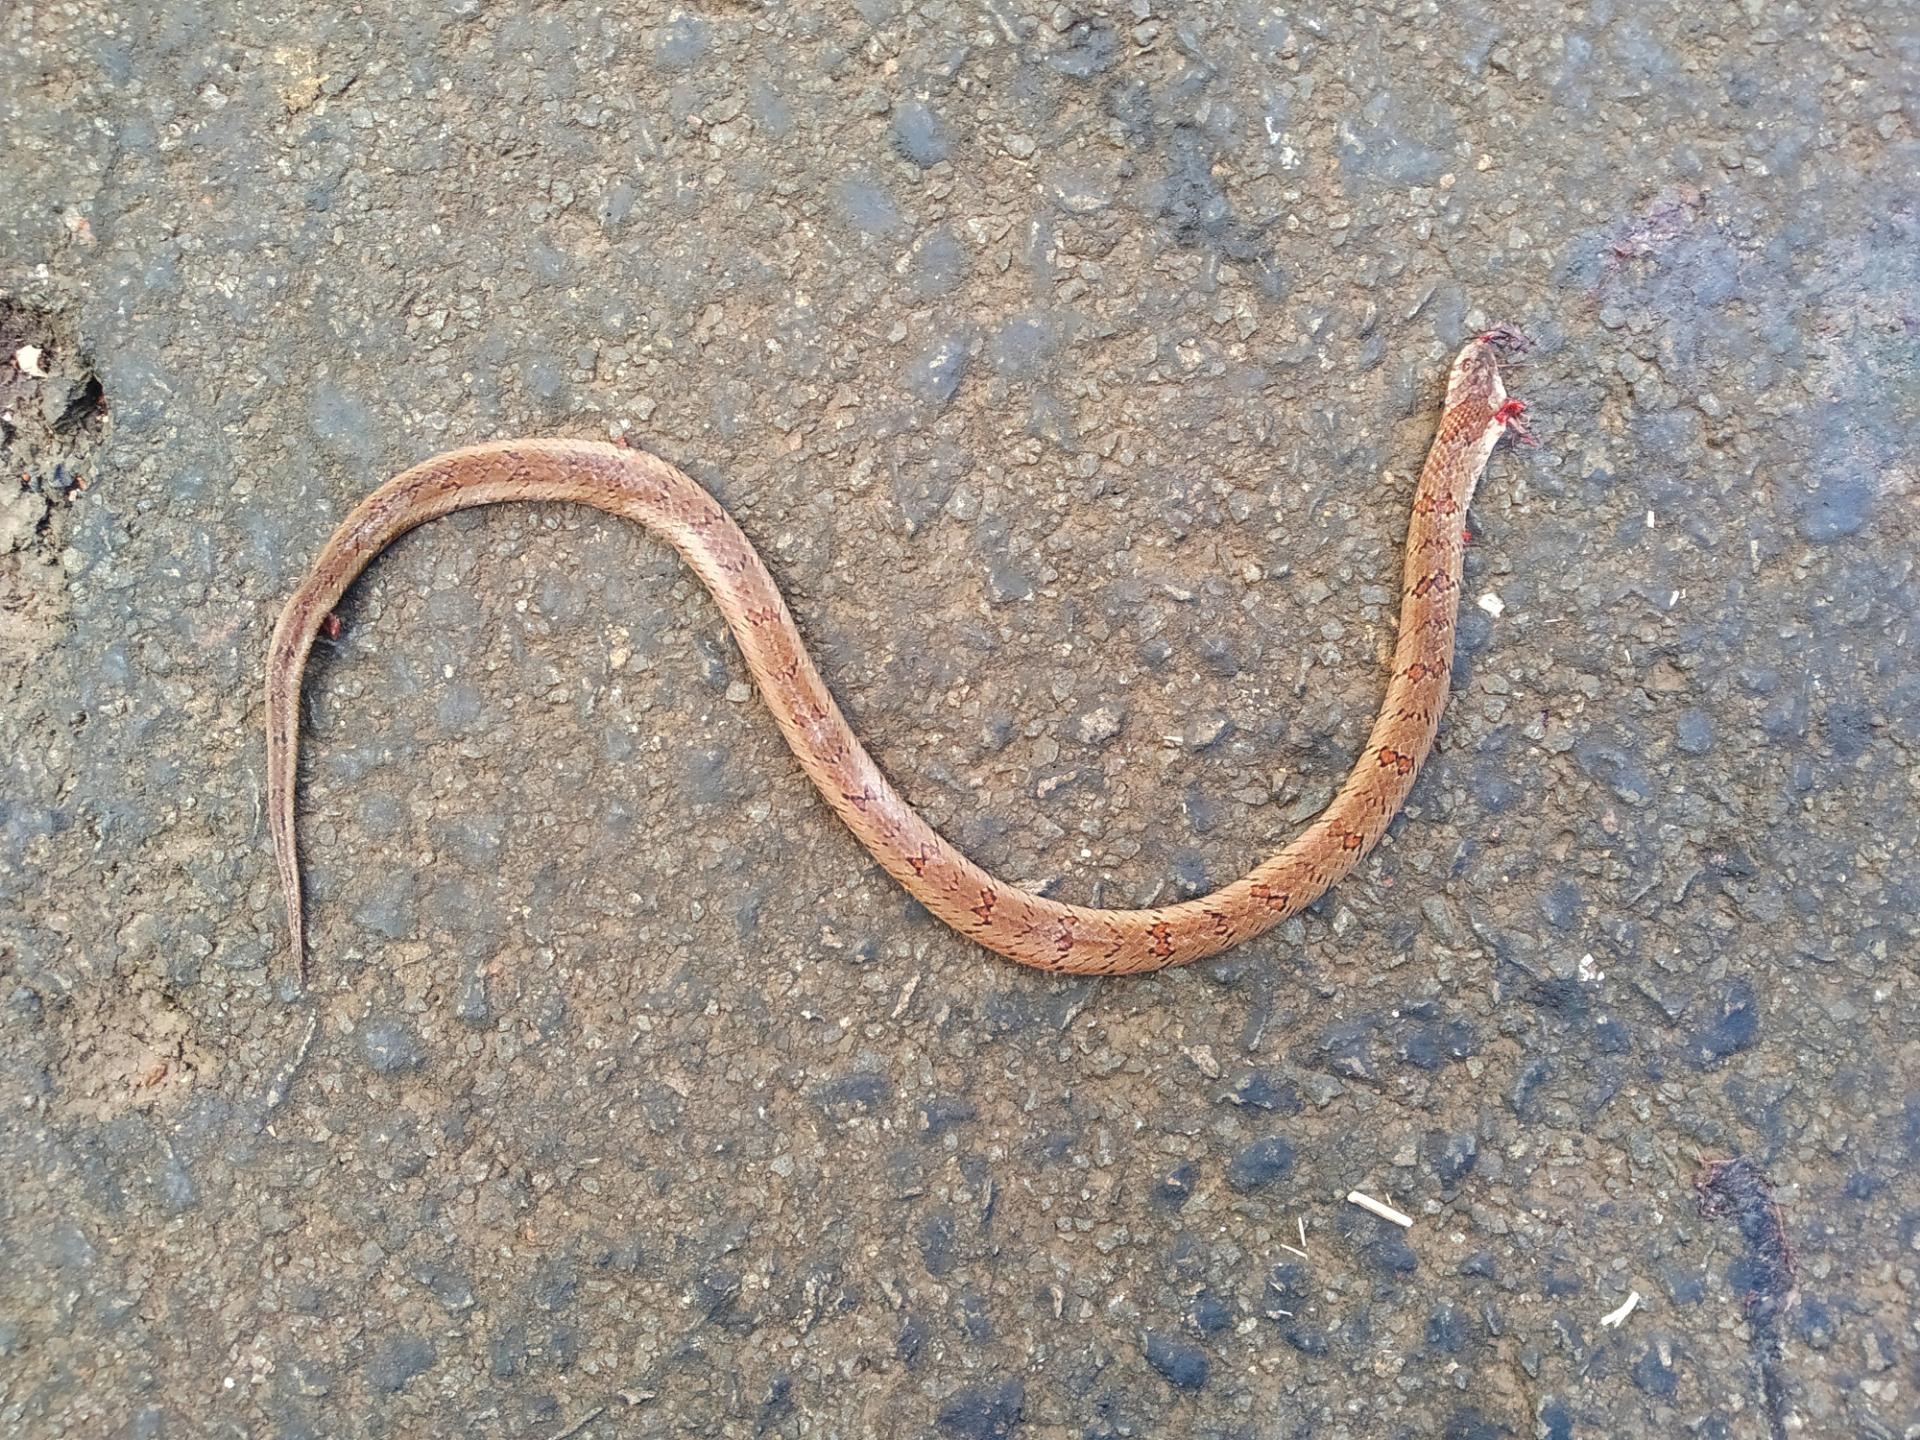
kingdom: Animalia
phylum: Chordata
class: Squamata
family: Colubridae
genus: Oligodon
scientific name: Oligodon taeniolatus
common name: Loos snake
